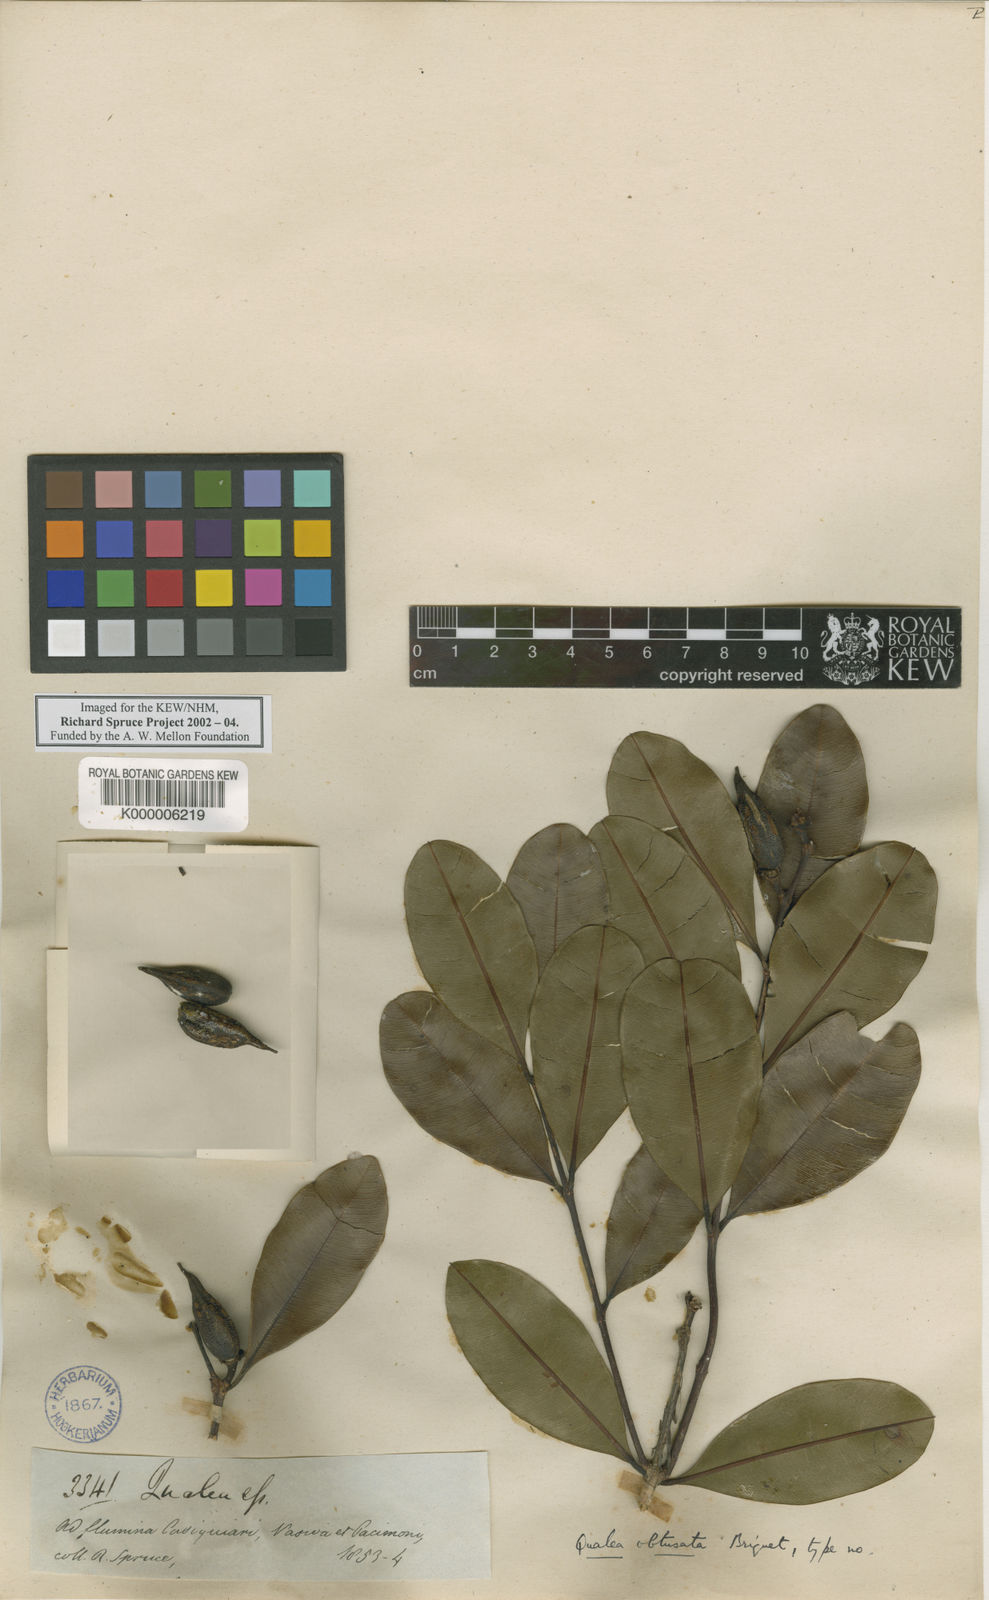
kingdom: Plantae
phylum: Tracheophyta
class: Magnoliopsida
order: Myrtales
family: Vochysiaceae
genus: Ruizterania
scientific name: Ruizterania obtusata
